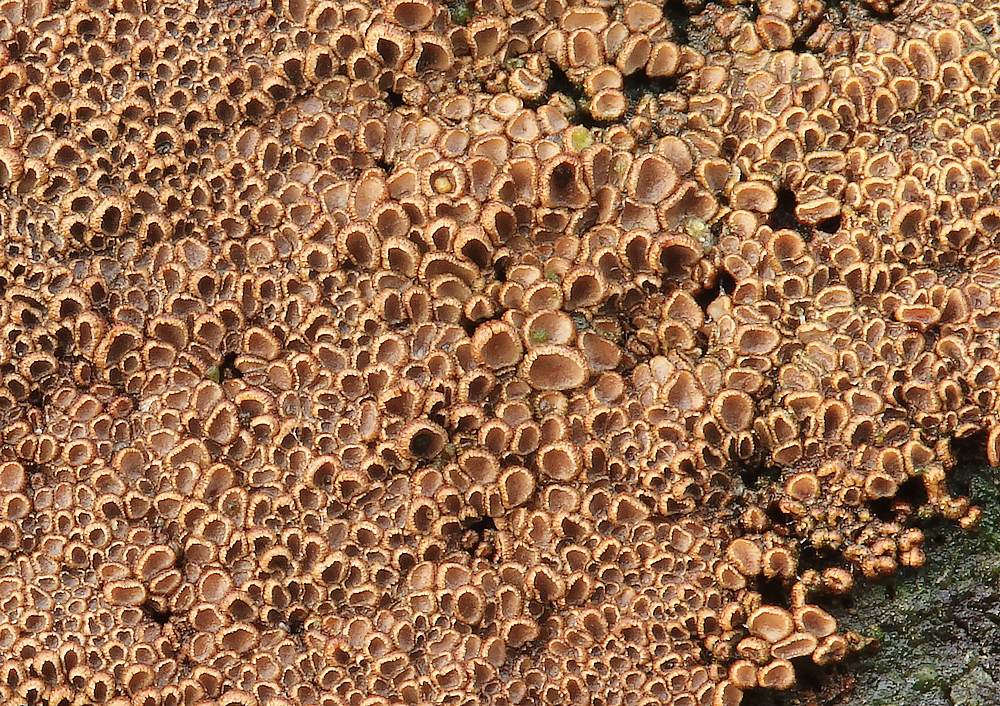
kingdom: Fungi
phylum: Basidiomycota
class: Agaricomycetes
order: Agaricales
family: Niaceae
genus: Merismodes
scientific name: Merismodes anomala
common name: almindelig læderskål
